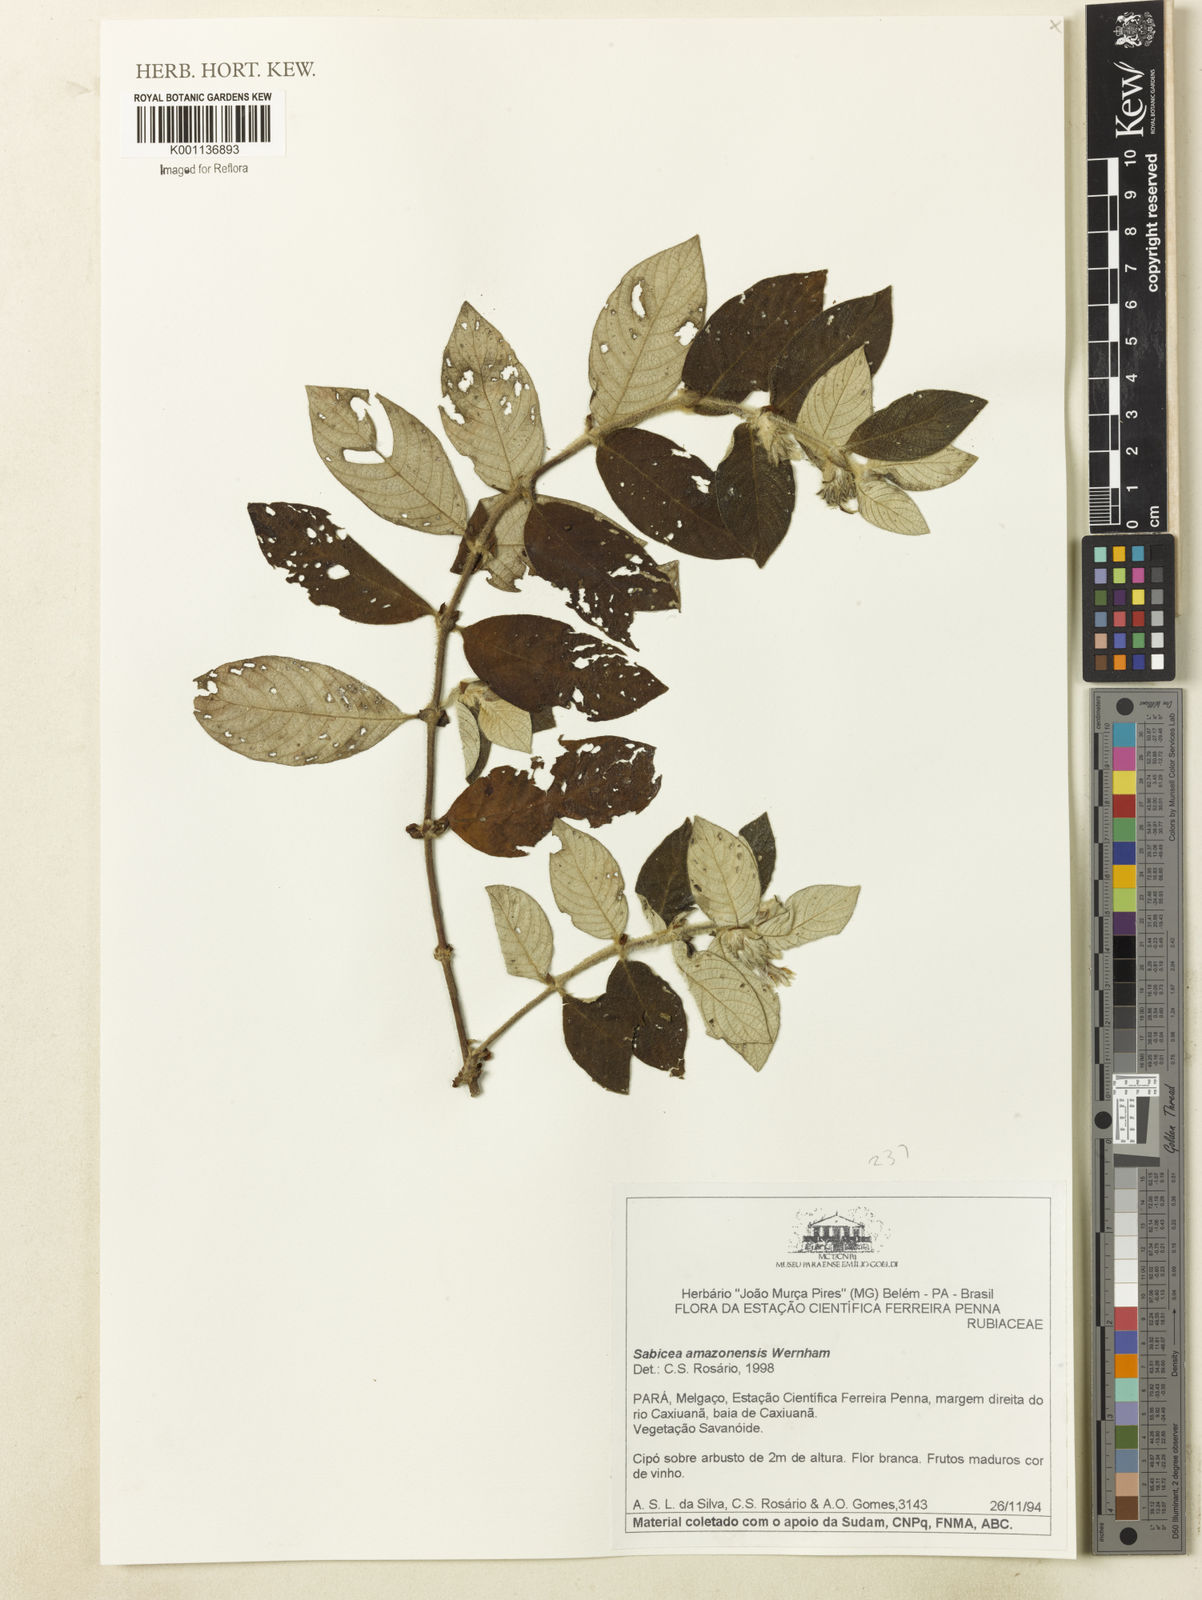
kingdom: Plantae
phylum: Tracheophyta
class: Magnoliopsida
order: Gentianales
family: Rubiaceae
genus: Sabicea
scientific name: Sabicea amazonensis
